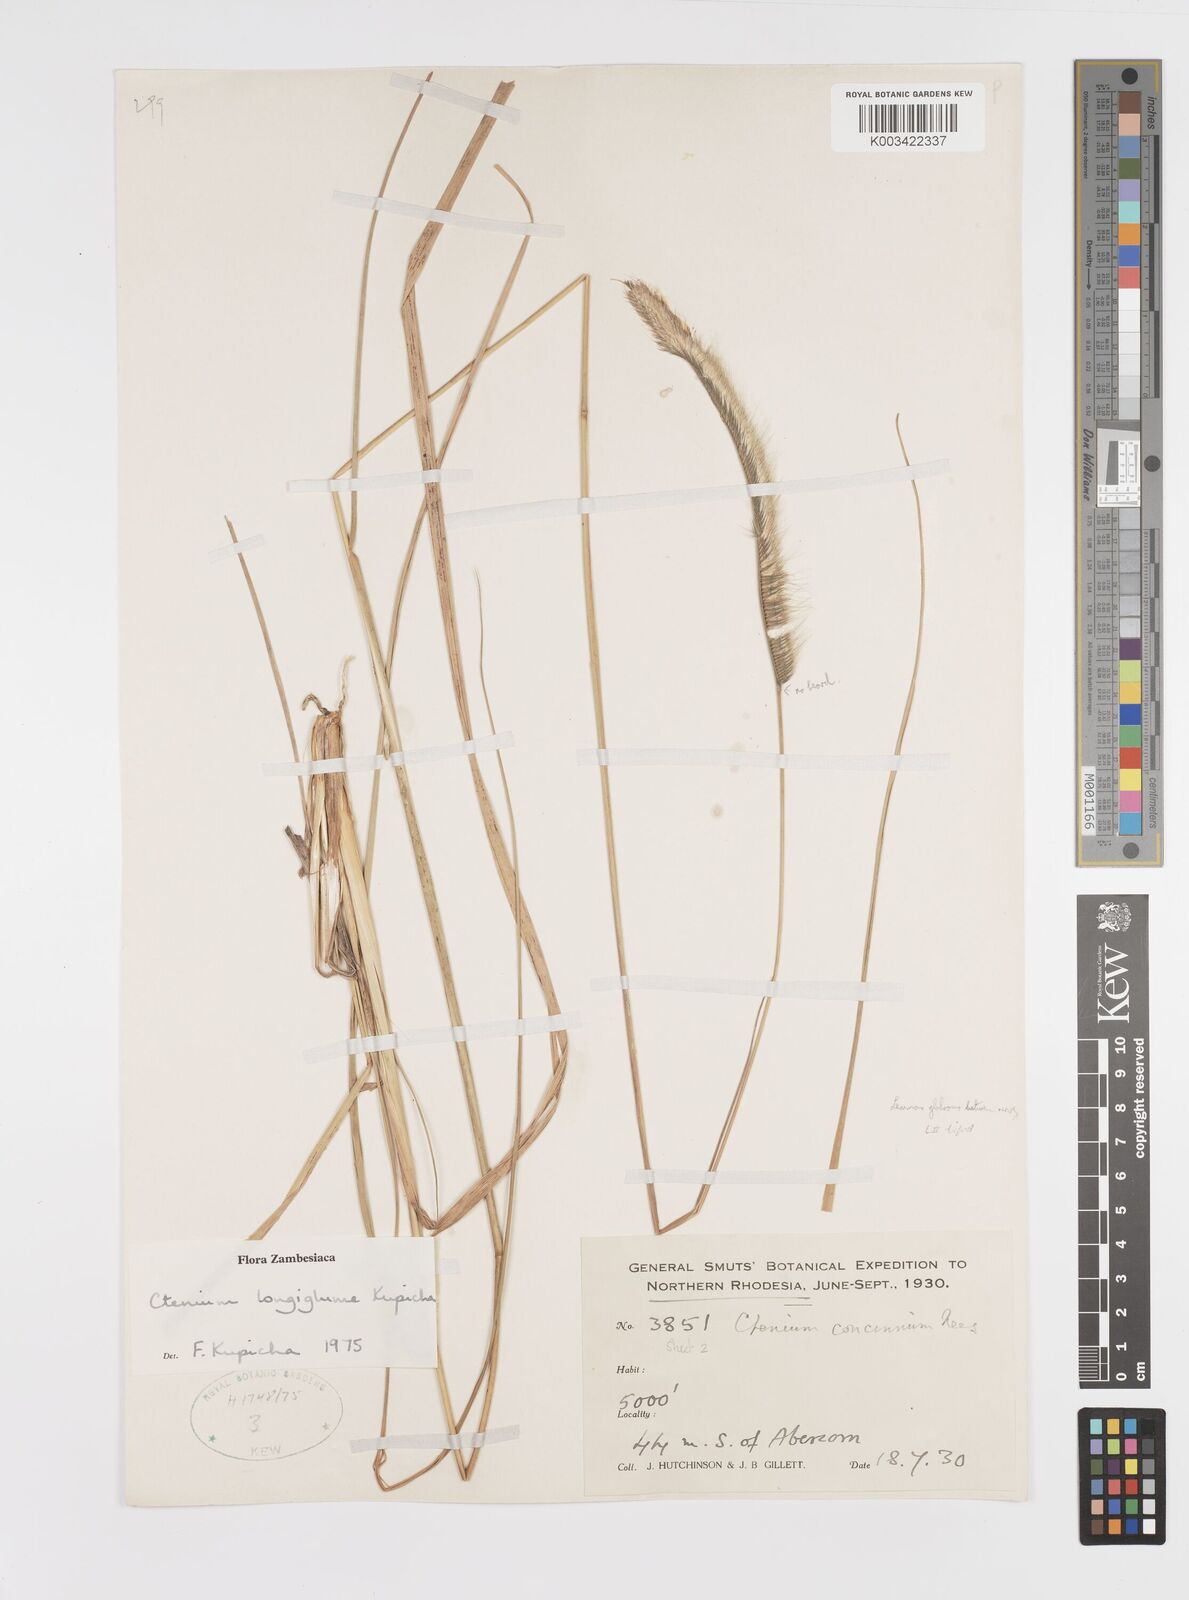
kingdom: Plantae
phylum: Tracheophyta
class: Liliopsida
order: Poales
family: Poaceae
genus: Ctenium
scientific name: Ctenium longiglume
